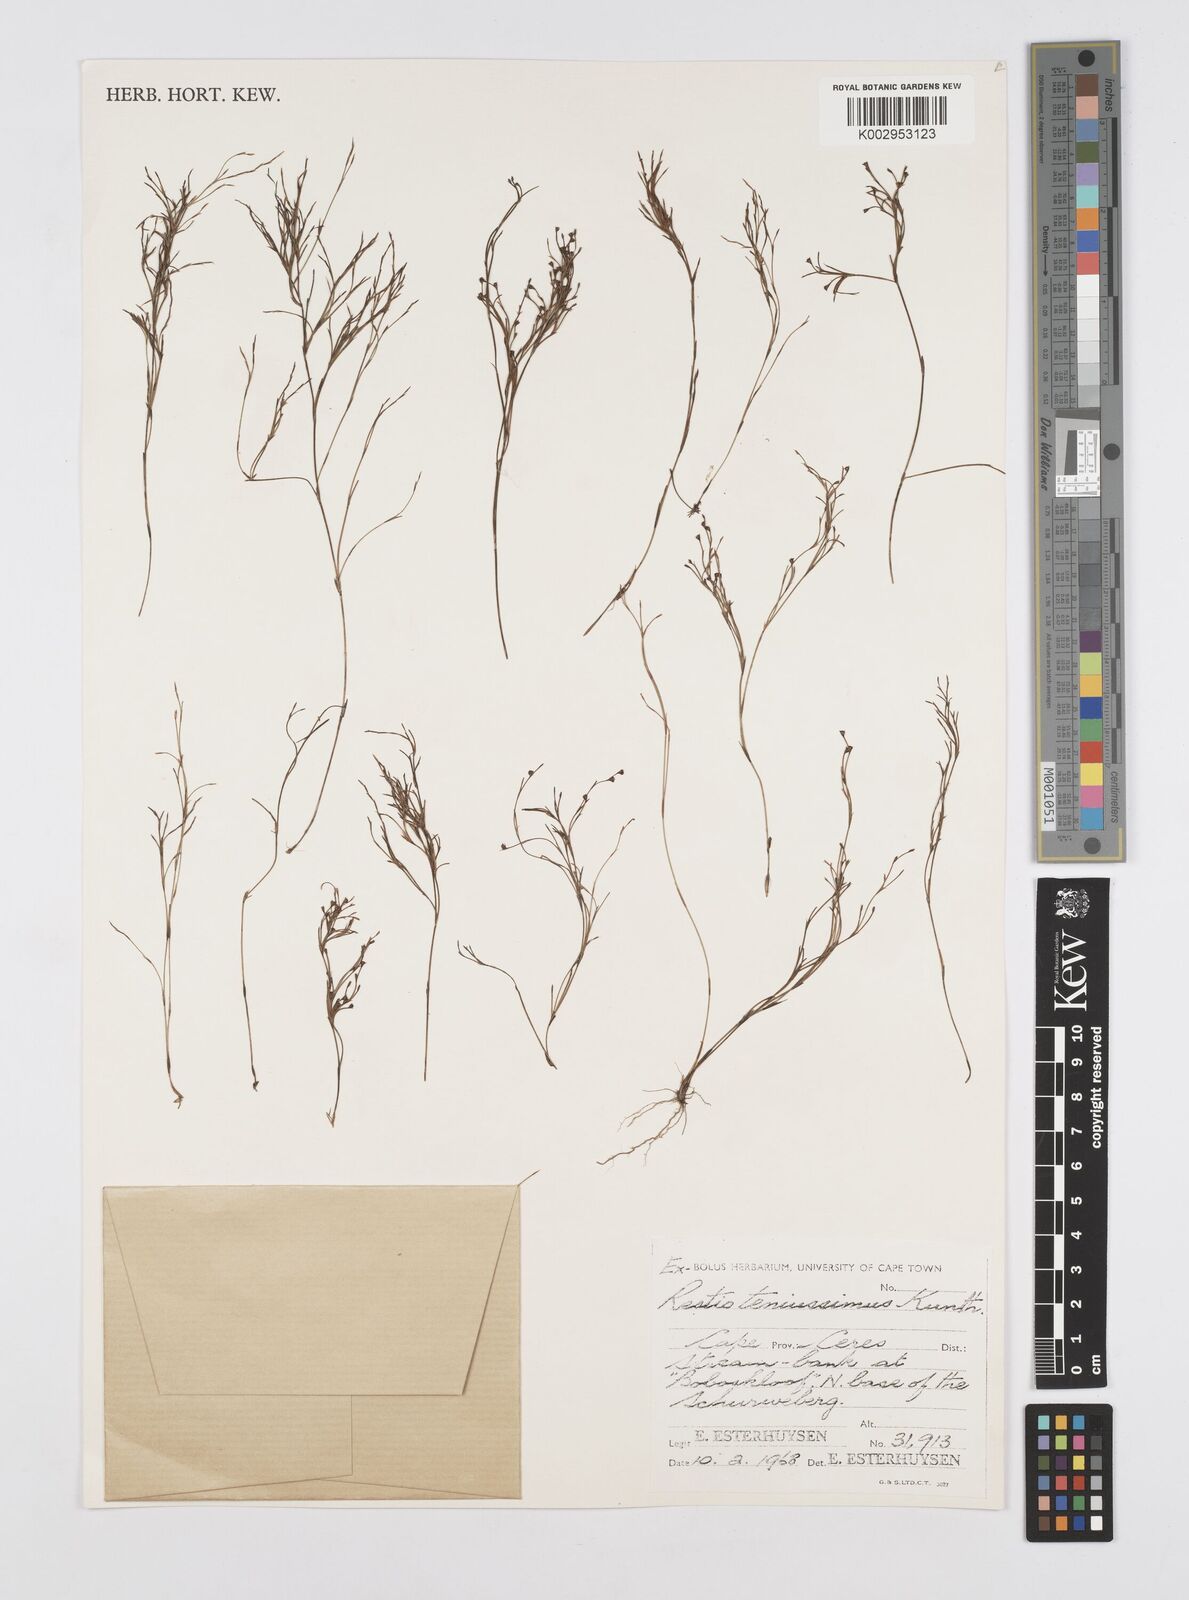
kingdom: Plantae
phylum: Tracheophyta
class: Liliopsida
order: Poales
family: Restionaceae
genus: Restio
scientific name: Restio tenuissimus
